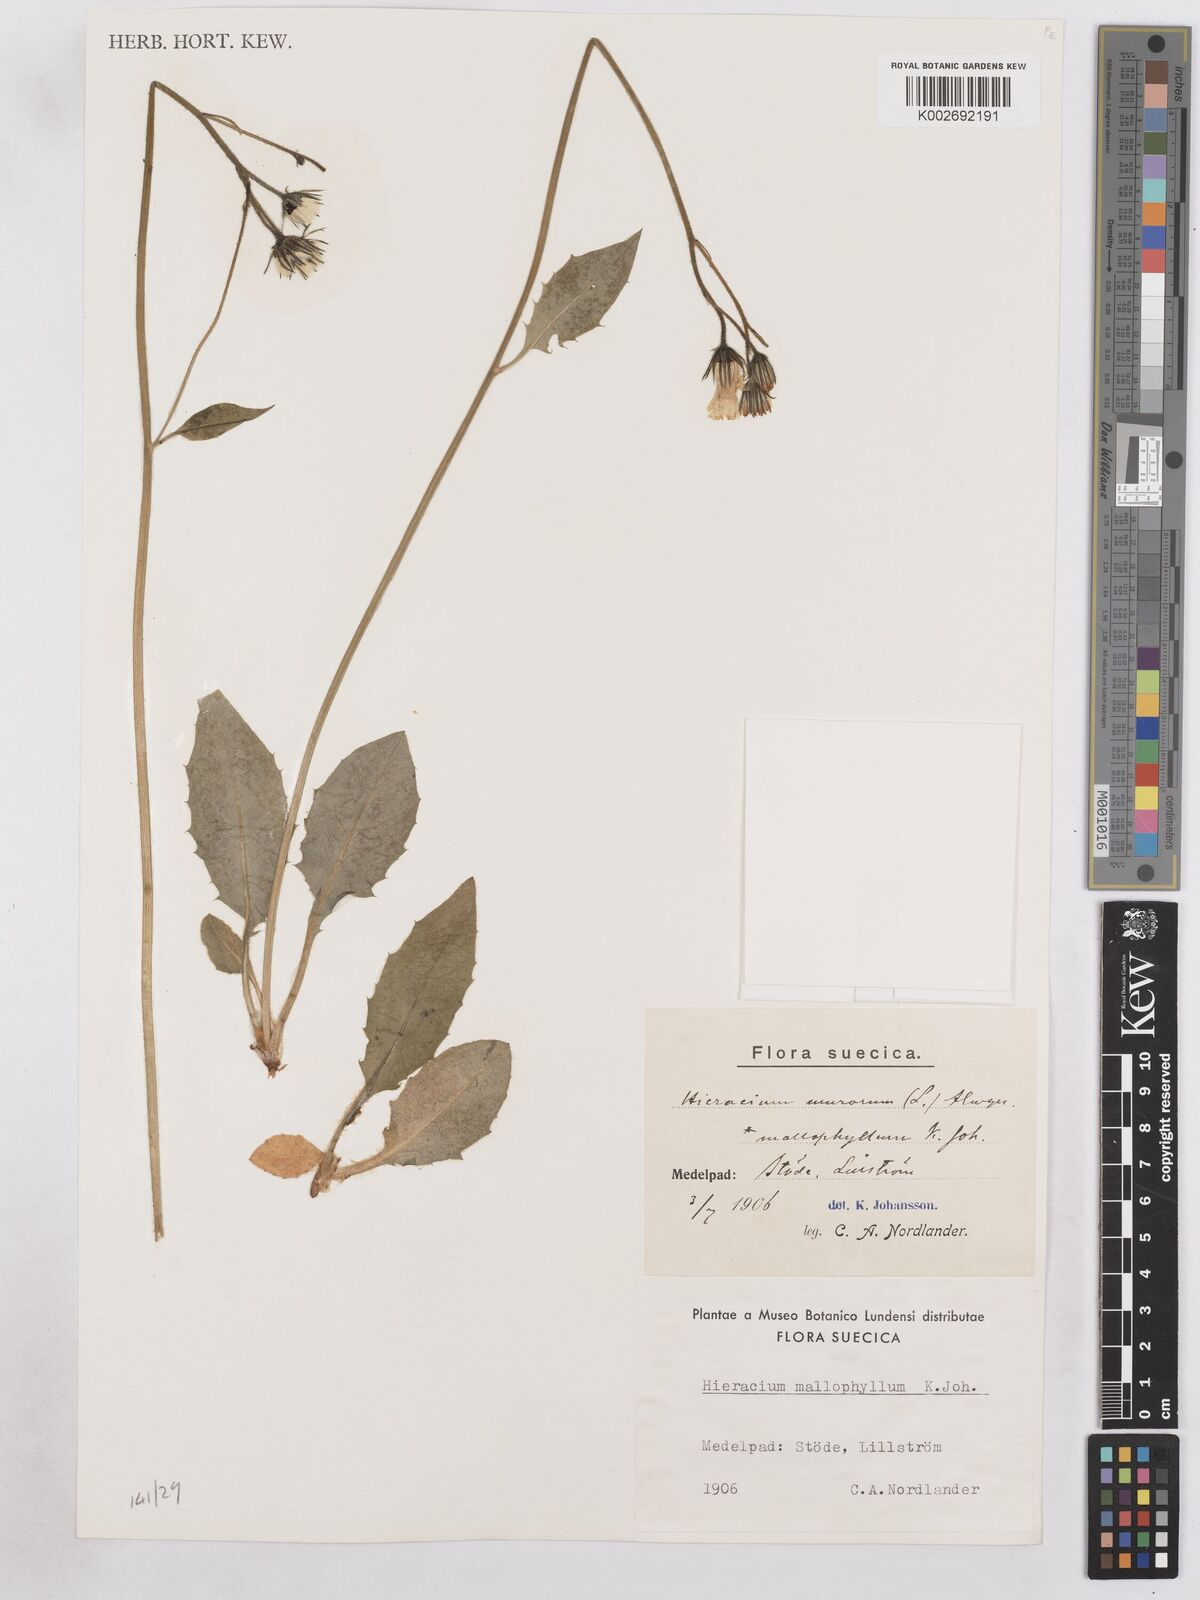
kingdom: Plantae
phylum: Tracheophyta
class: Magnoliopsida
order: Asterales
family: Asteraceae
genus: Hieracium
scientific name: Hieracium diaphanoides
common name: Fine-bracted hawkweed
